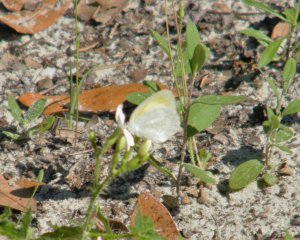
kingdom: Animalia
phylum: Arthropoda
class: Insecta
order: Lepidoptera
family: Pieridae
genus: Eurema
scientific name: Eurema daira
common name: Barred Yellow
